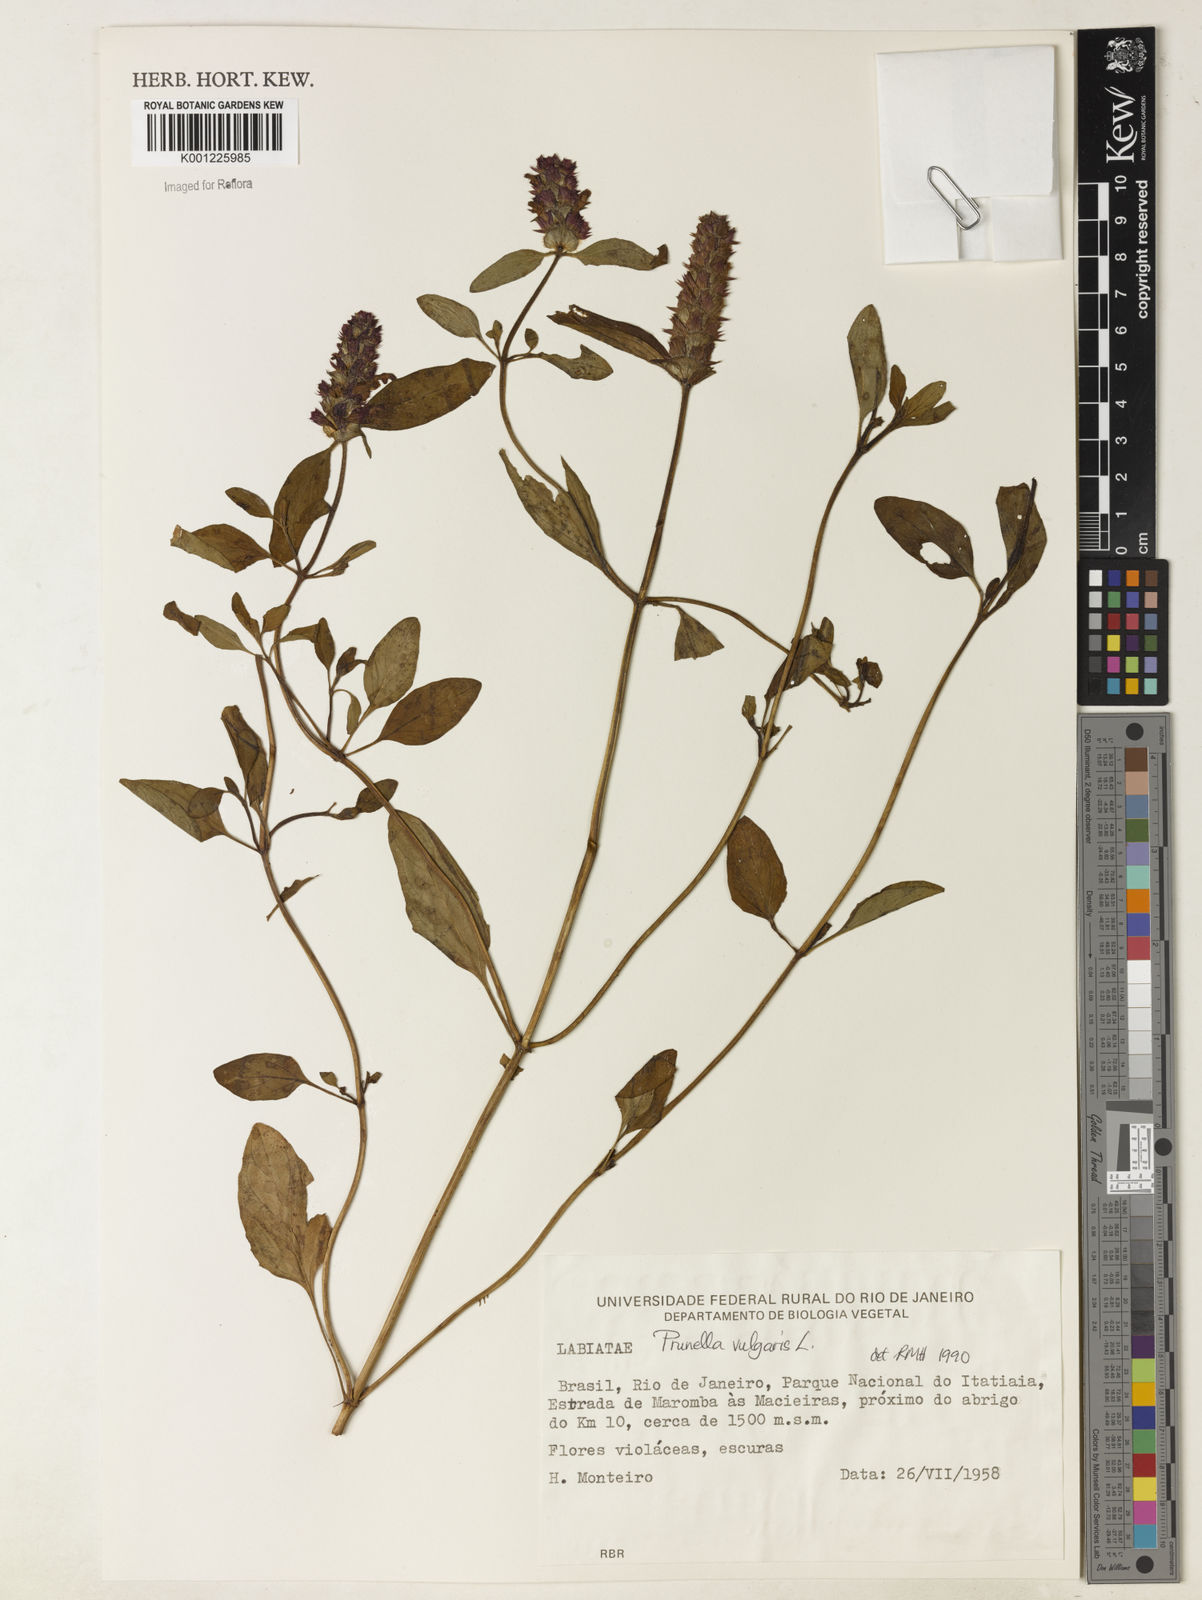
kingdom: Plantae
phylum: Tracheophyta
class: Magnoliopsida
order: Lamiales
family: Lamiaceae
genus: Prunella
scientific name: Prunella vulgaris
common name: Heal-all
